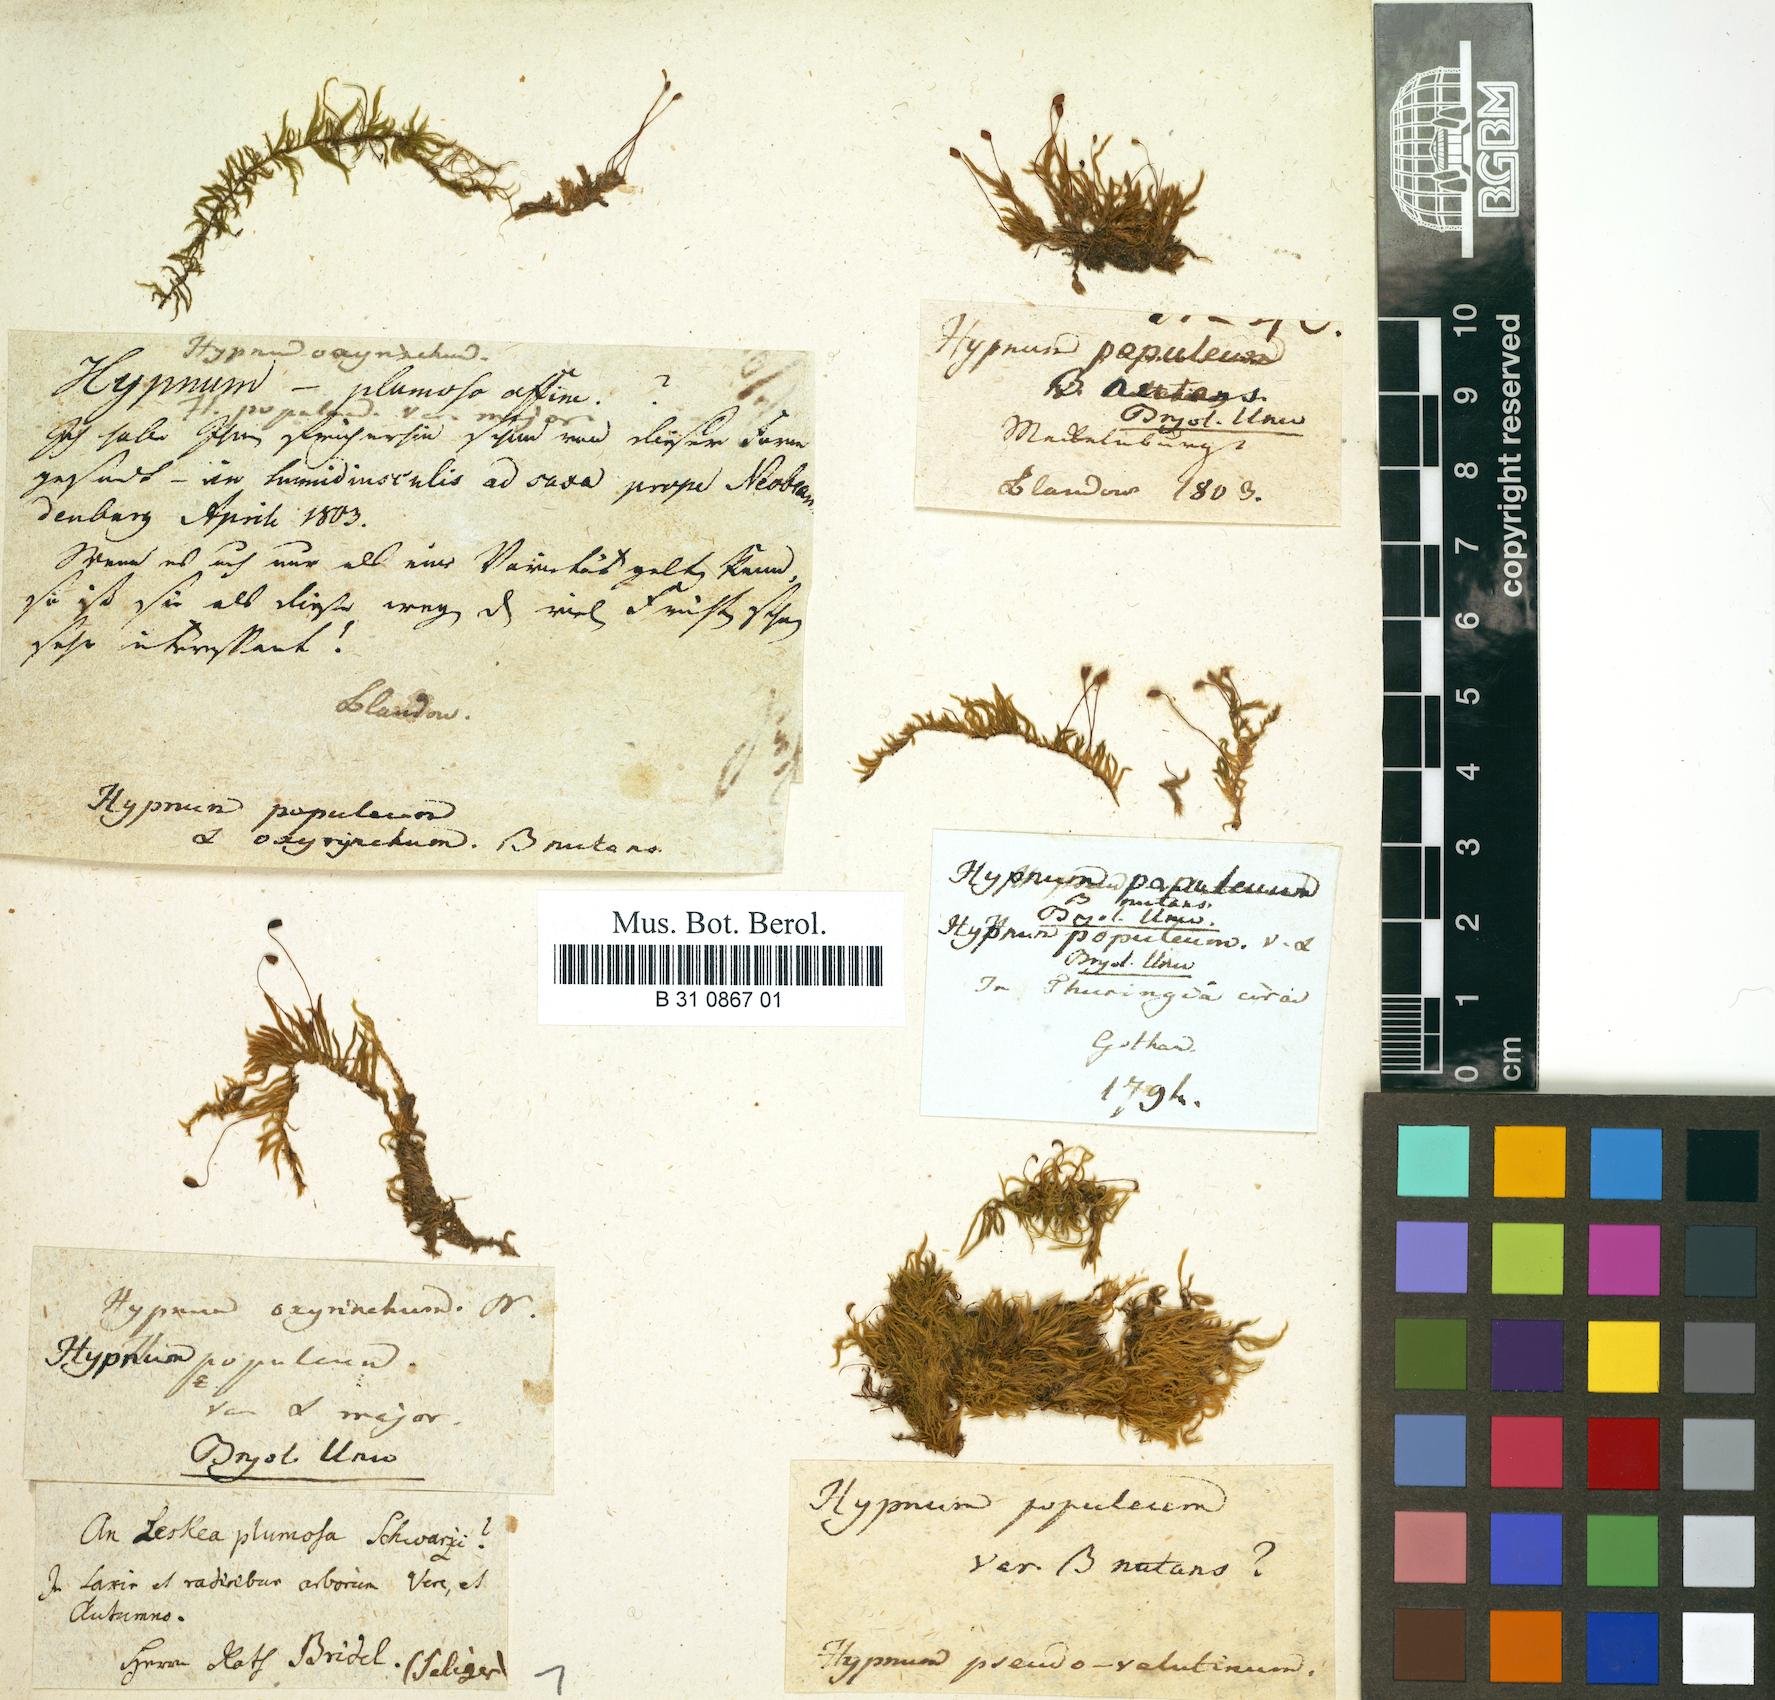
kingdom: Plantae
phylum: Bryophyta
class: Bryopsida
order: Hypnales
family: Brachytheciaceae
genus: Sciuro-hypnum
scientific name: Sciuro-hypnum populeum
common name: Matted feather-moss
